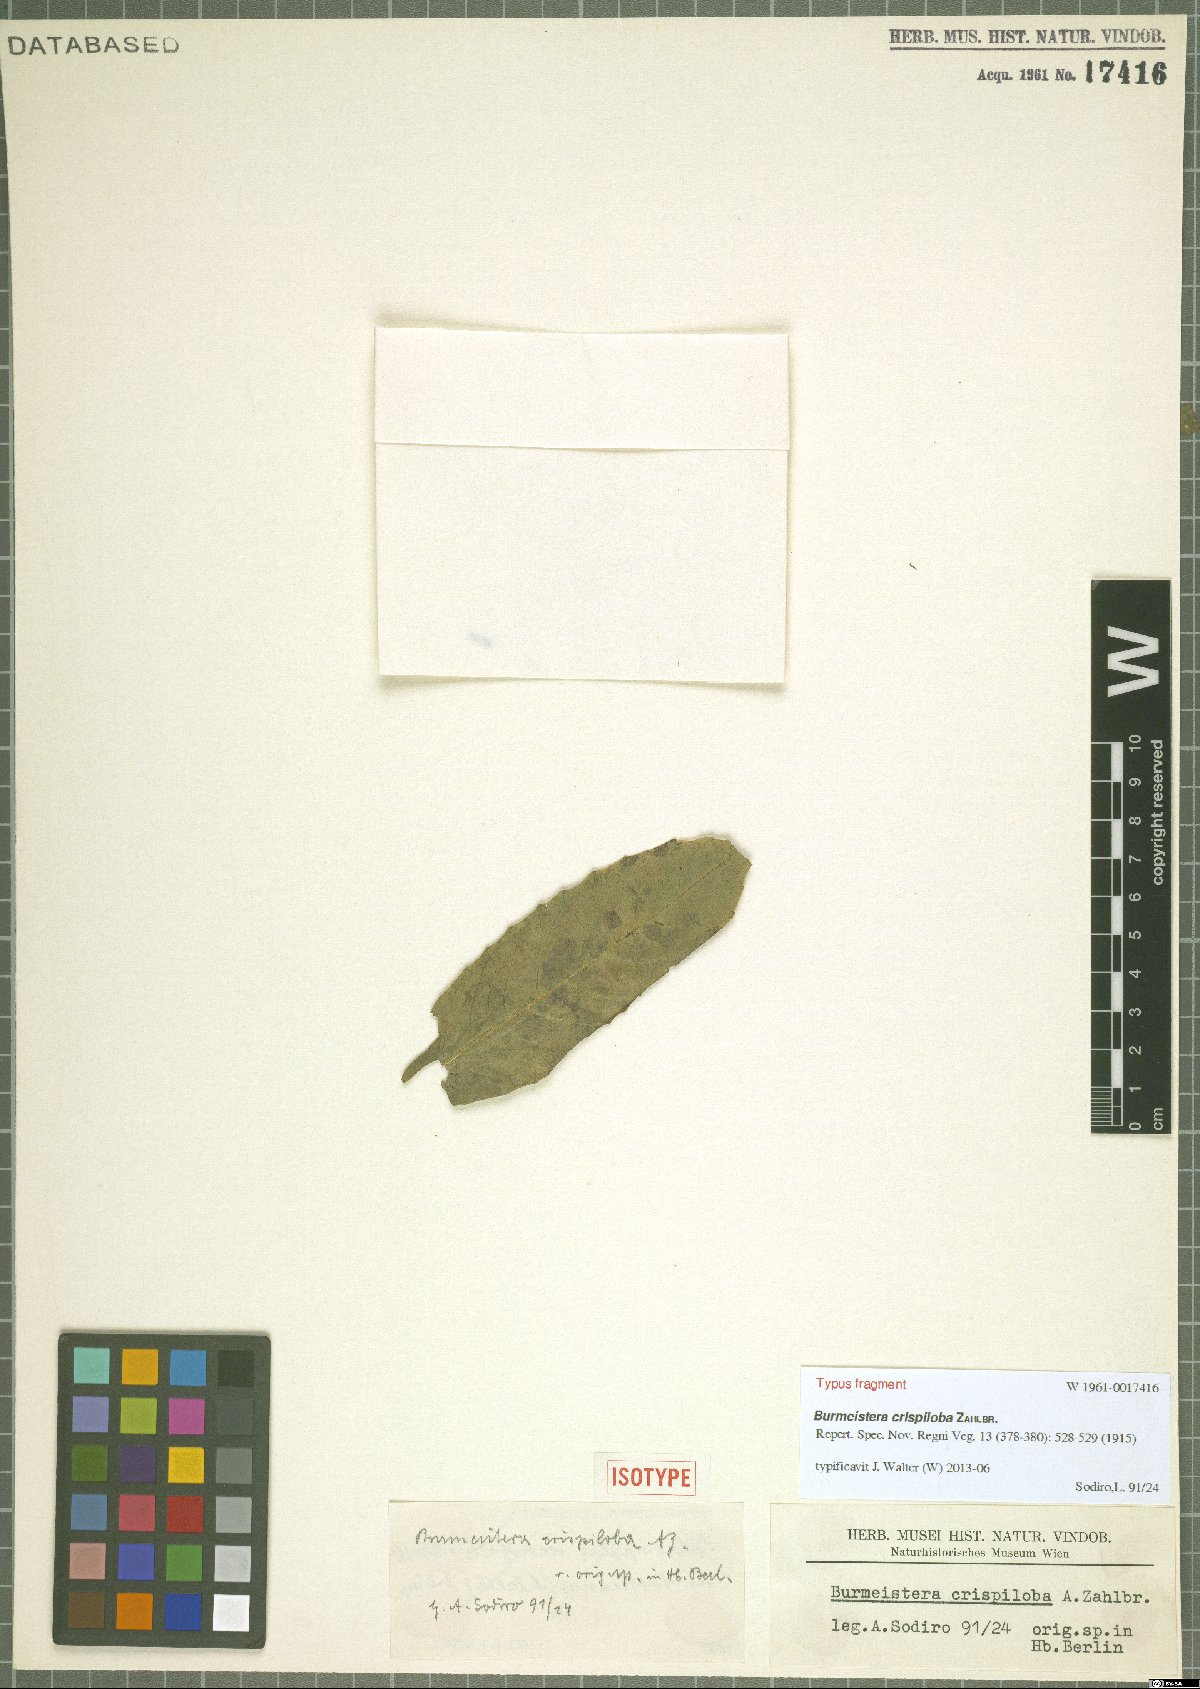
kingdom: Plantae
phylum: Tracheophyta
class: Magnoliopsida
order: Asterales
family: Campanulaceae
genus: Burmeistera
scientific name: Burmeistera crispiloba
